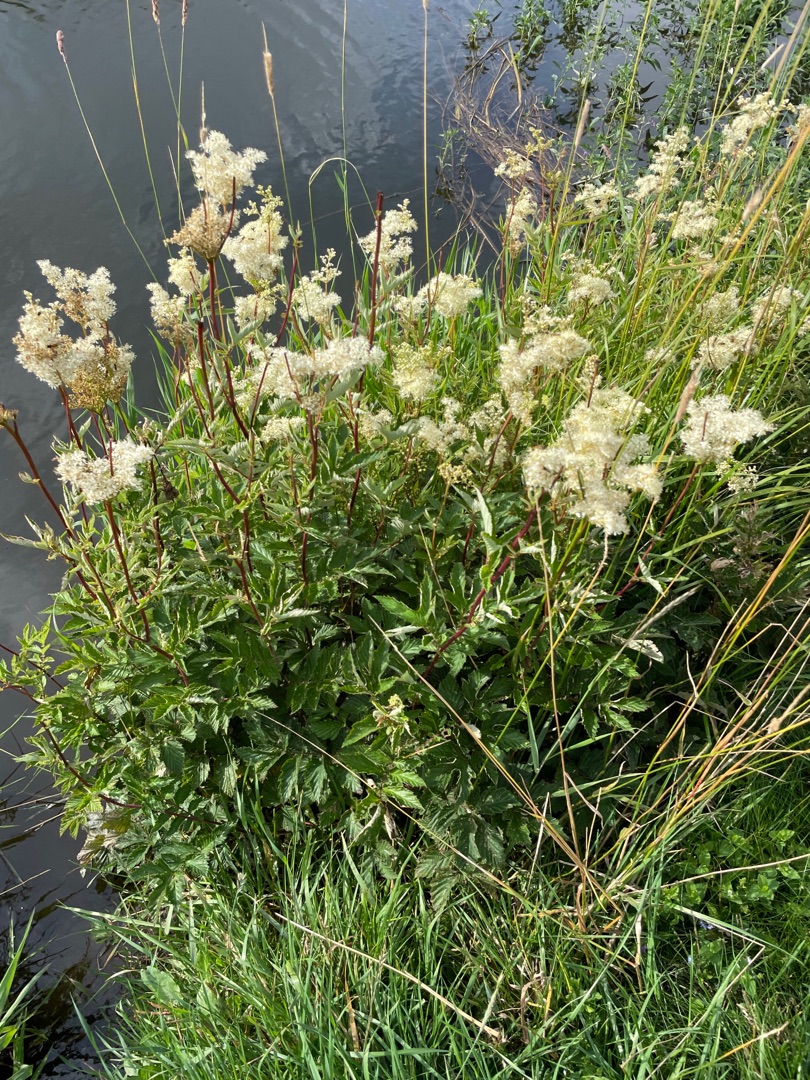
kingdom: Plantae
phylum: Tracheophyta
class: Magnoliopsida
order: Rosales
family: Rosaceae
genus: Filipendula
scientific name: Filipendula ulmaria
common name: Almindelig mjødurt
